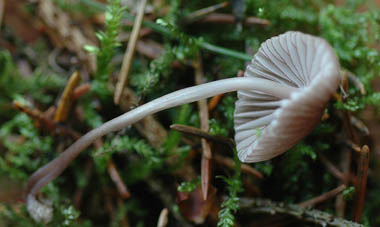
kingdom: Fungi
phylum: Basidiomycota
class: Agaricomycetes
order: Agaricales
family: Mycenaceae
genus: Mycena
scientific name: Mycena rubromarginata
